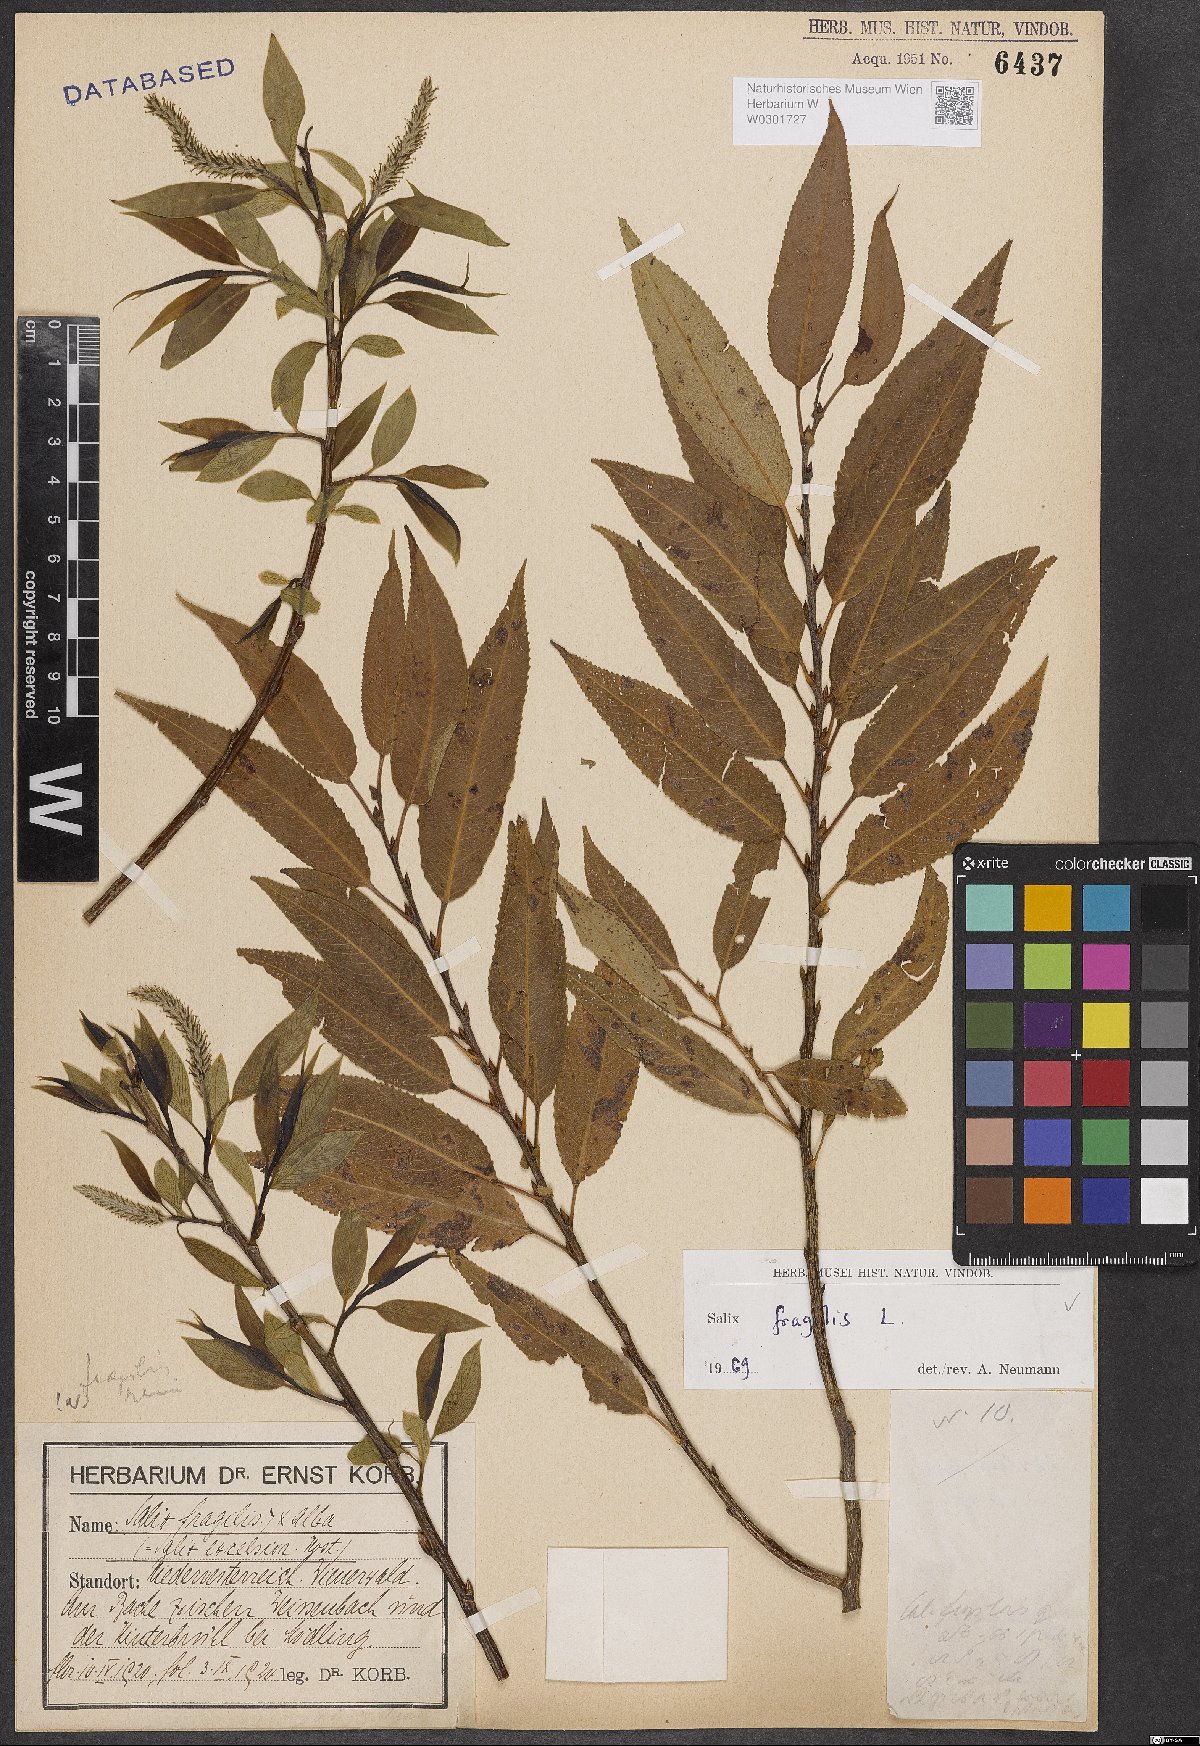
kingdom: Plantae
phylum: Tracheophyta
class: Magnoliopsida
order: Malpighiales
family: Salicaceae
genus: Salix
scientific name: Salix fragilis
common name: Crack willow
